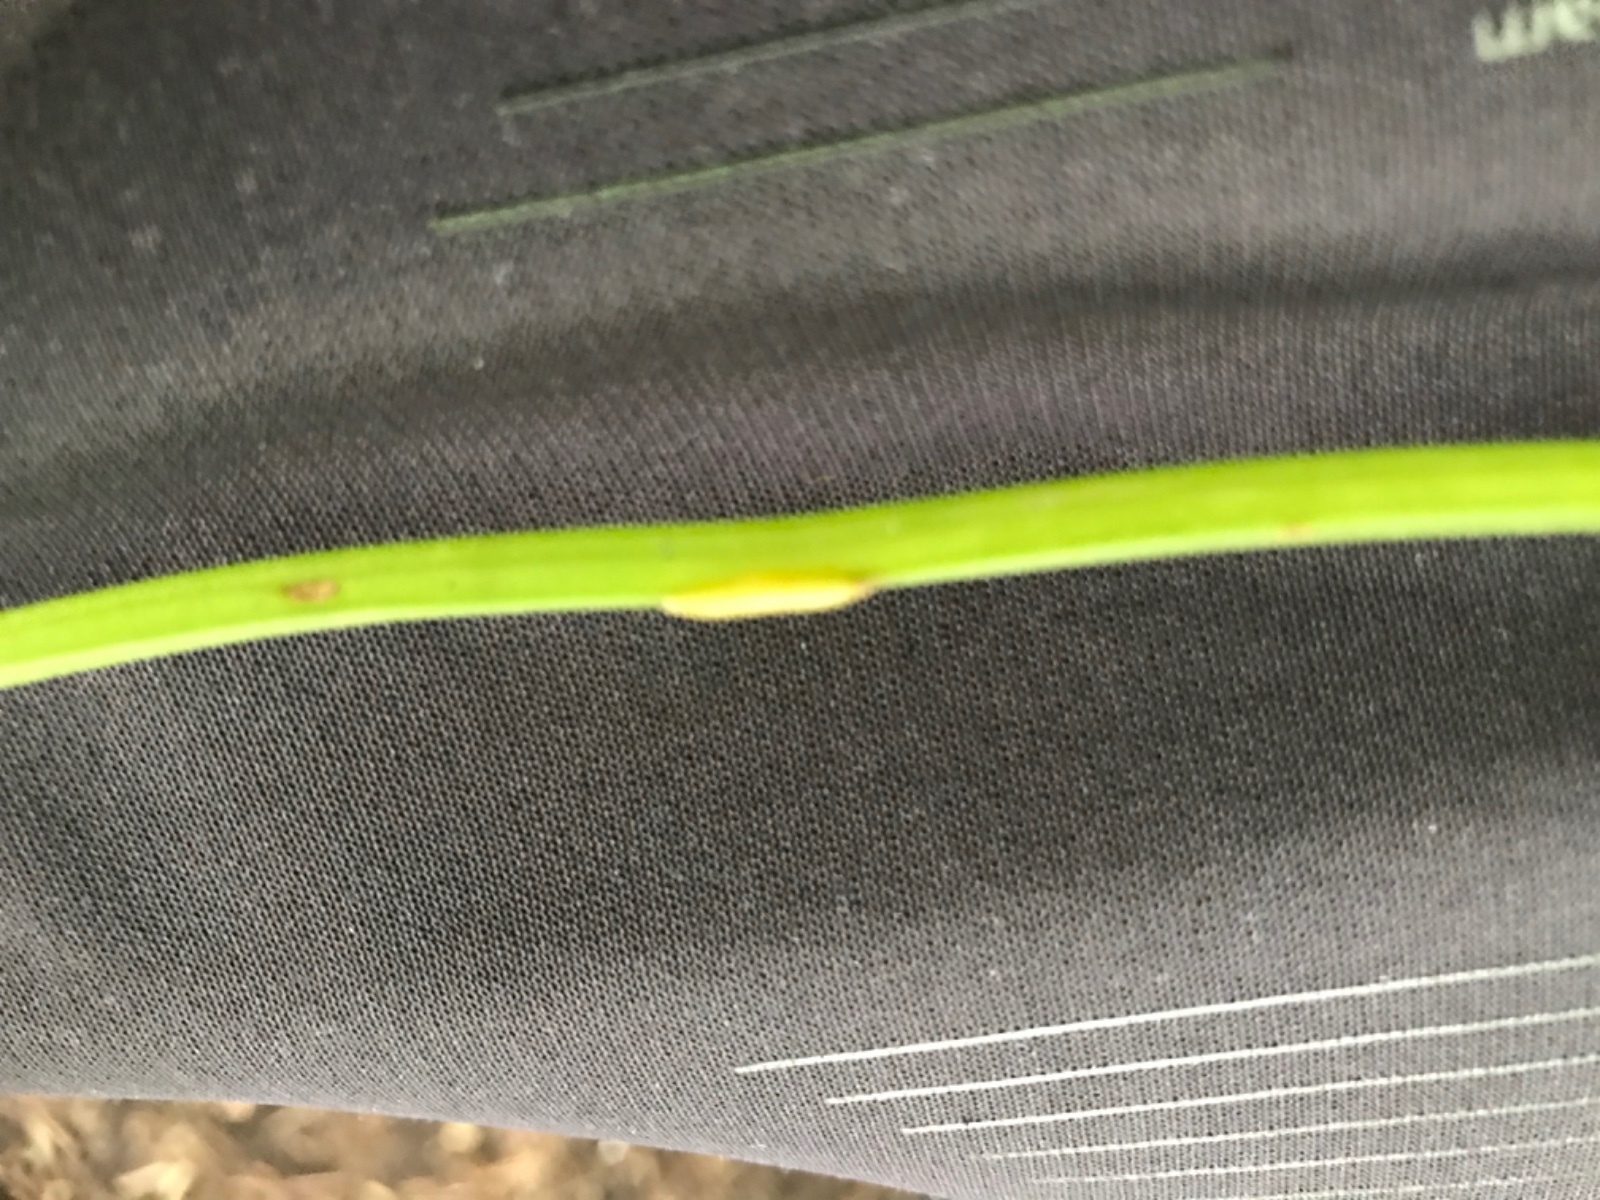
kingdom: Fungi
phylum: Ascomycota
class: Taphrinomycetes
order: Taphrinales
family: Taphrinaceae
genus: Protomyces
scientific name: Protomyces macrosporus
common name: skvalderkål-vablesæk
